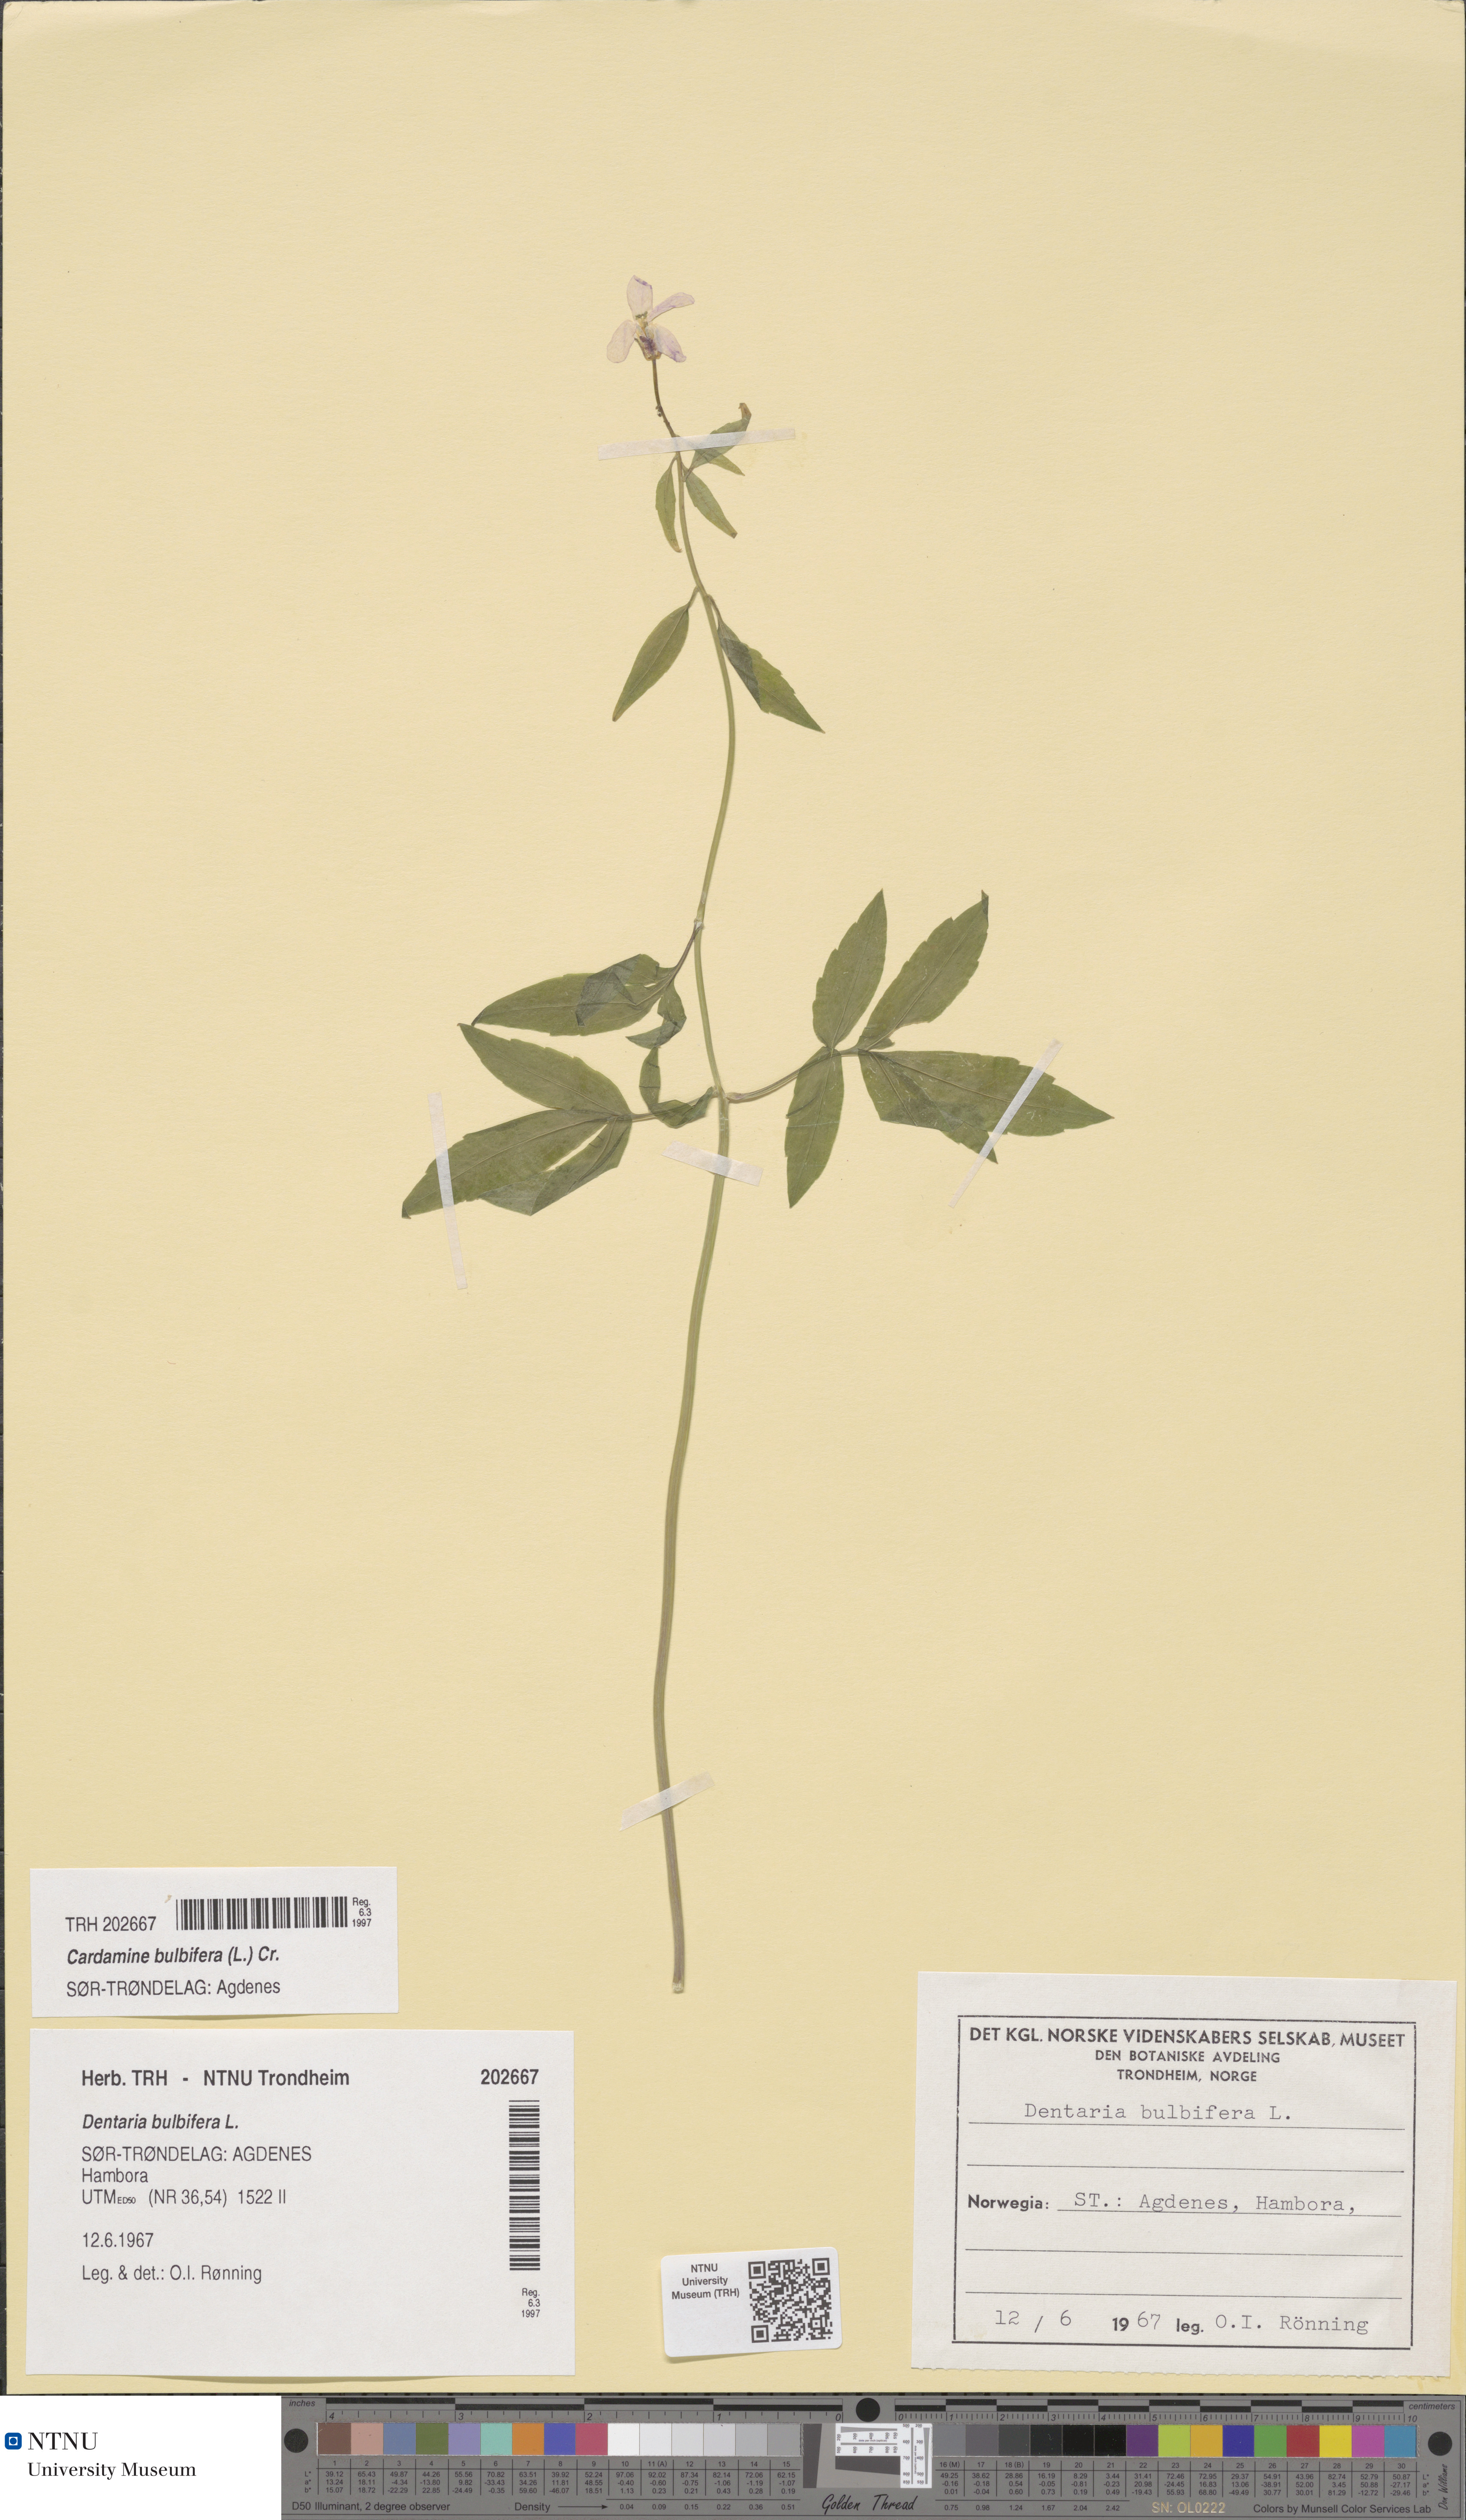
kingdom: Plantae
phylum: Tracheophyta
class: Magnoliopsida
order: Brassicales
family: Brassicaceae
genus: Cardamine
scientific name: Cardamine bulbifera
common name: Coralroot bittercress
